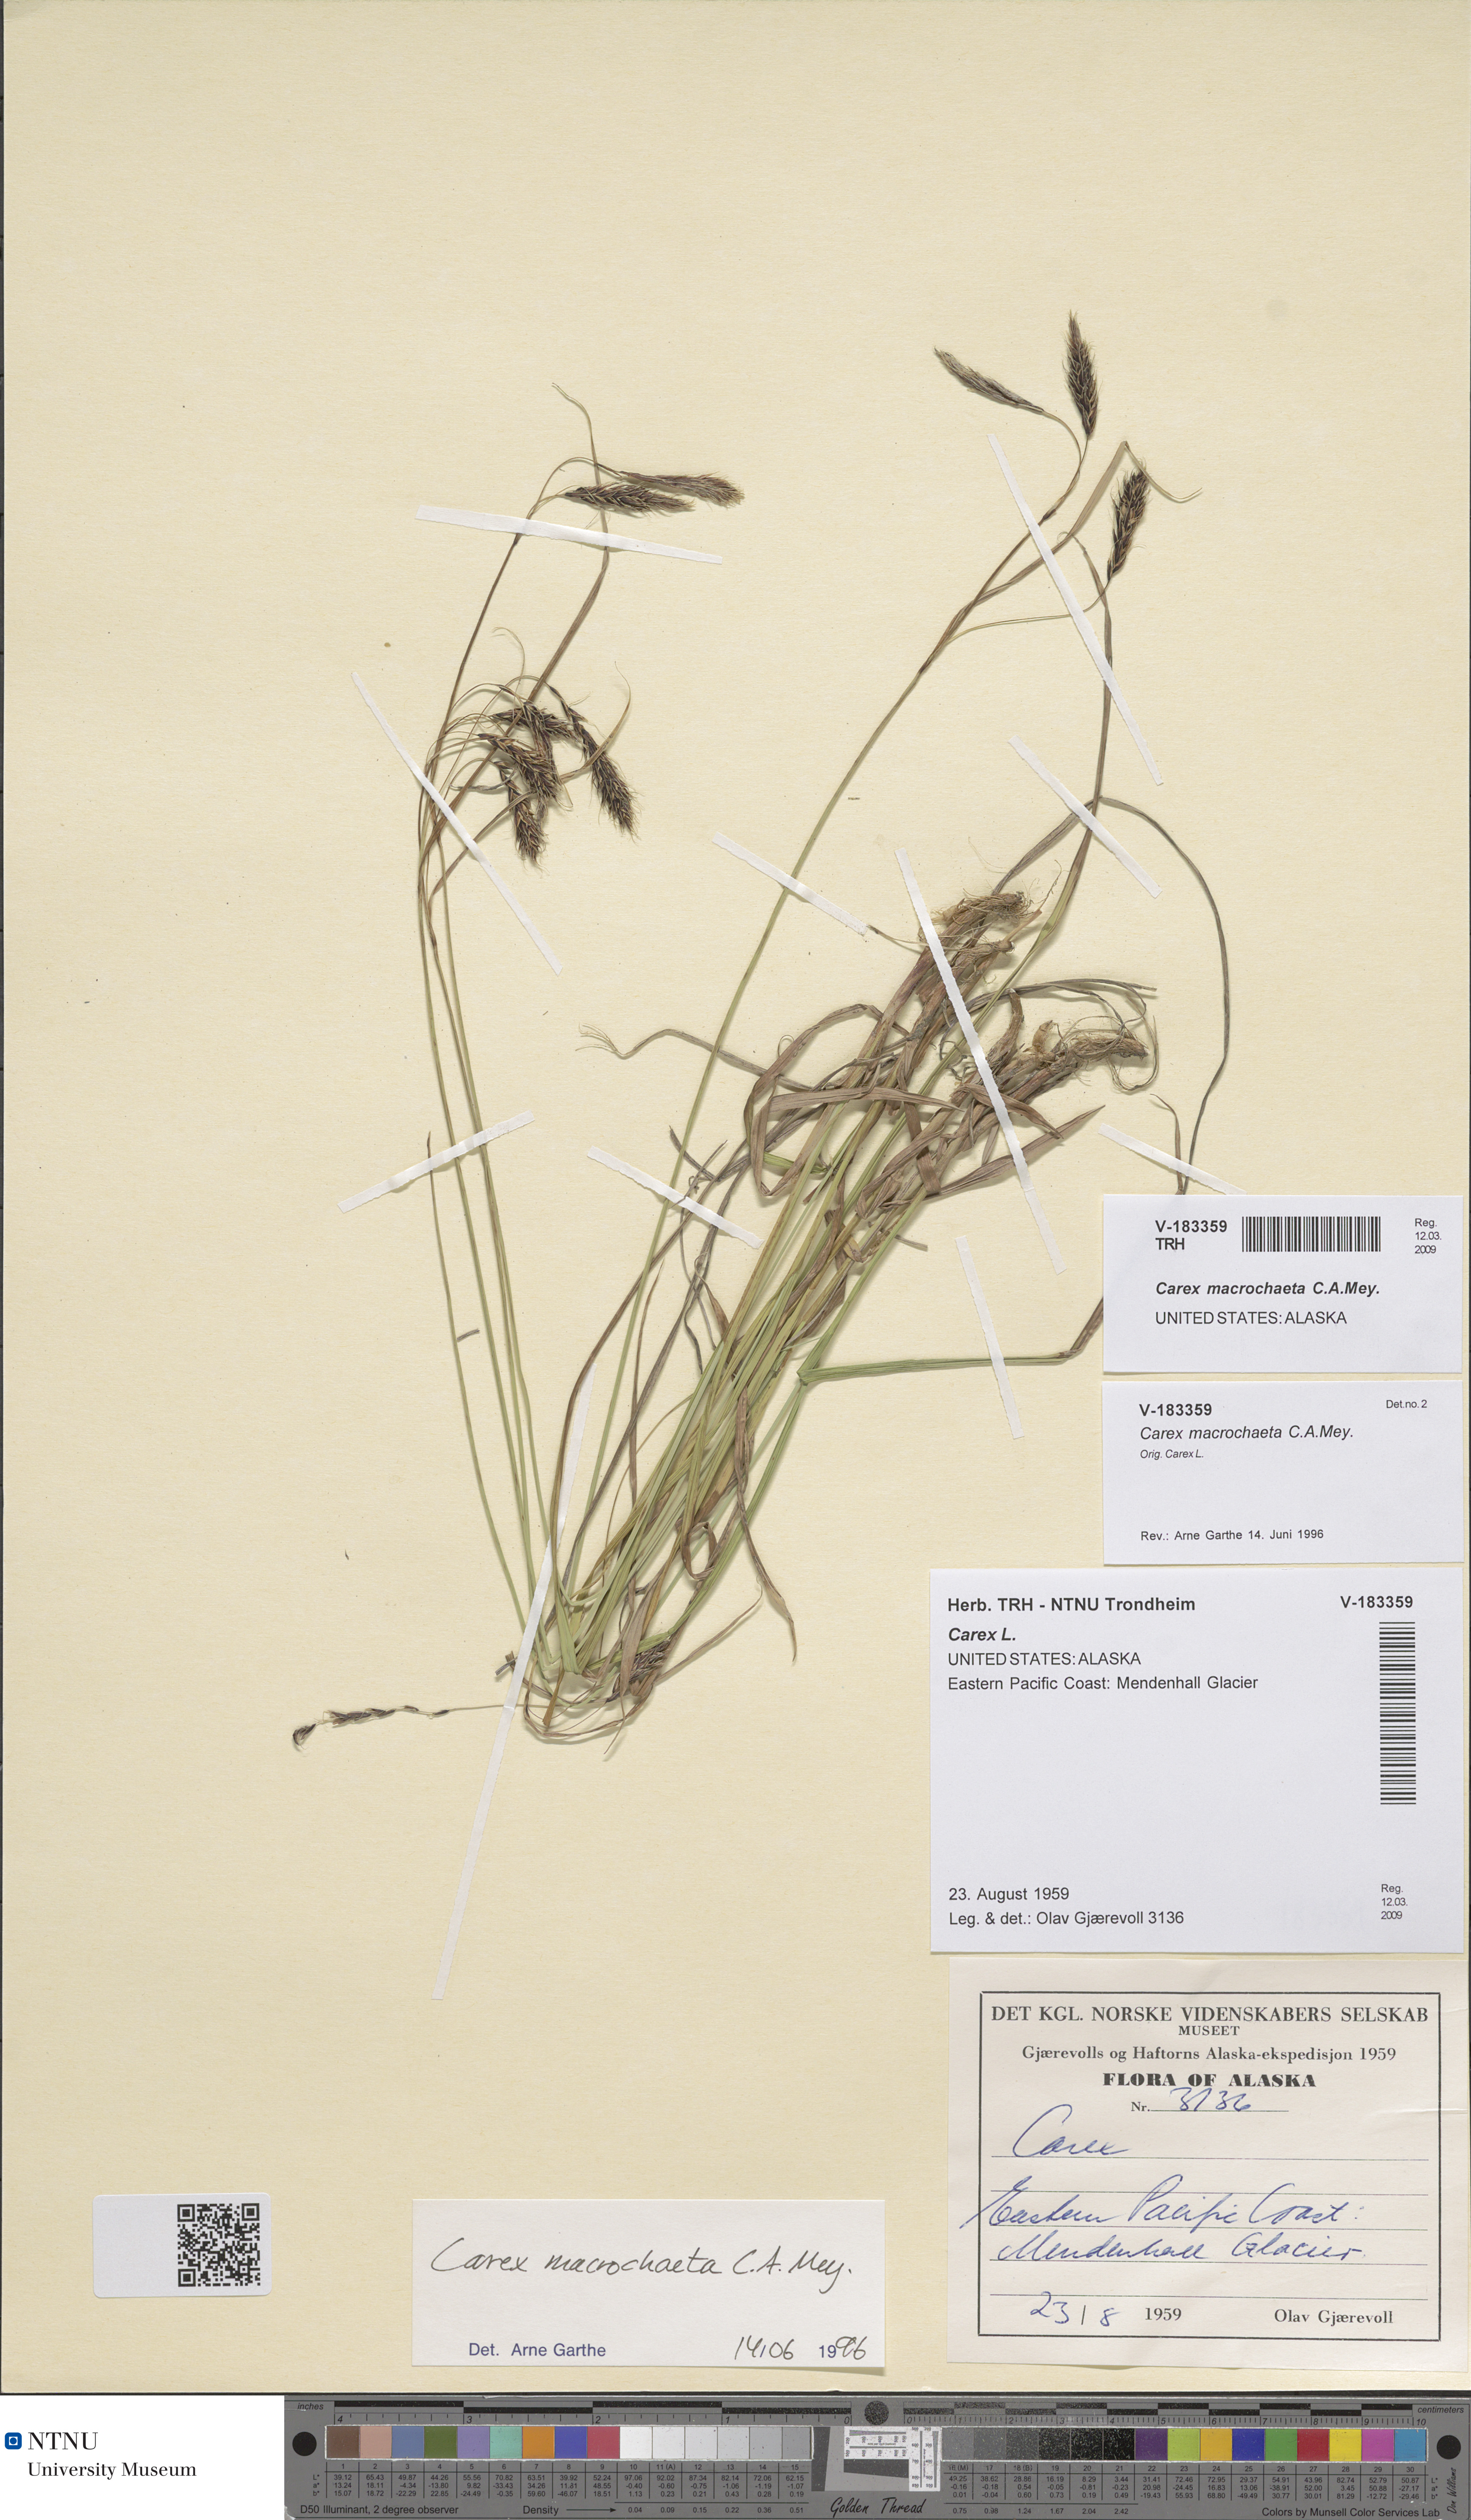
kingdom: Plantae
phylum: Tracheophyta
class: Liliopsida
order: Poales
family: Cyperaceae
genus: Carex
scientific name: Carex macrochaeta
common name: Alaska large awn sedge
